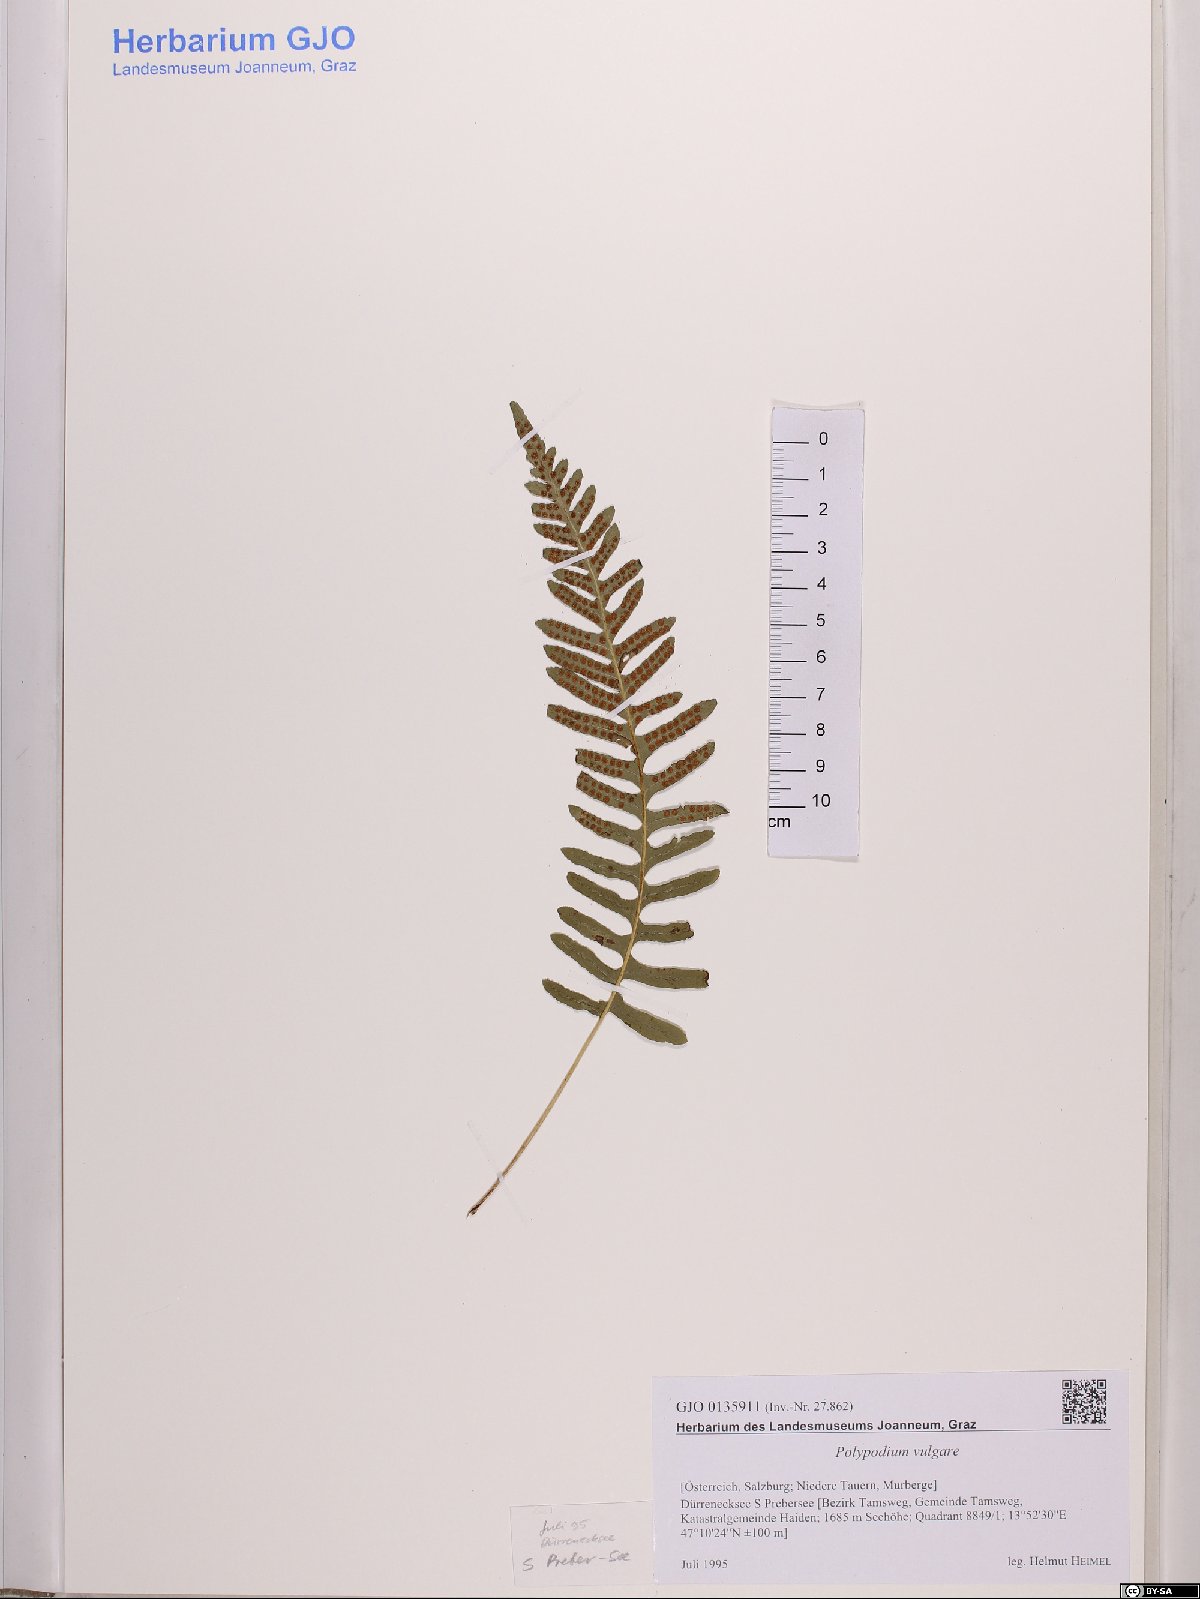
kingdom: Plantae
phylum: Tracheophyta
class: Polypodiopsida
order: Polypodiales
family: Polypodiaceae
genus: Polypodium
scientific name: Polypodium vulgare
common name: Common polypody
